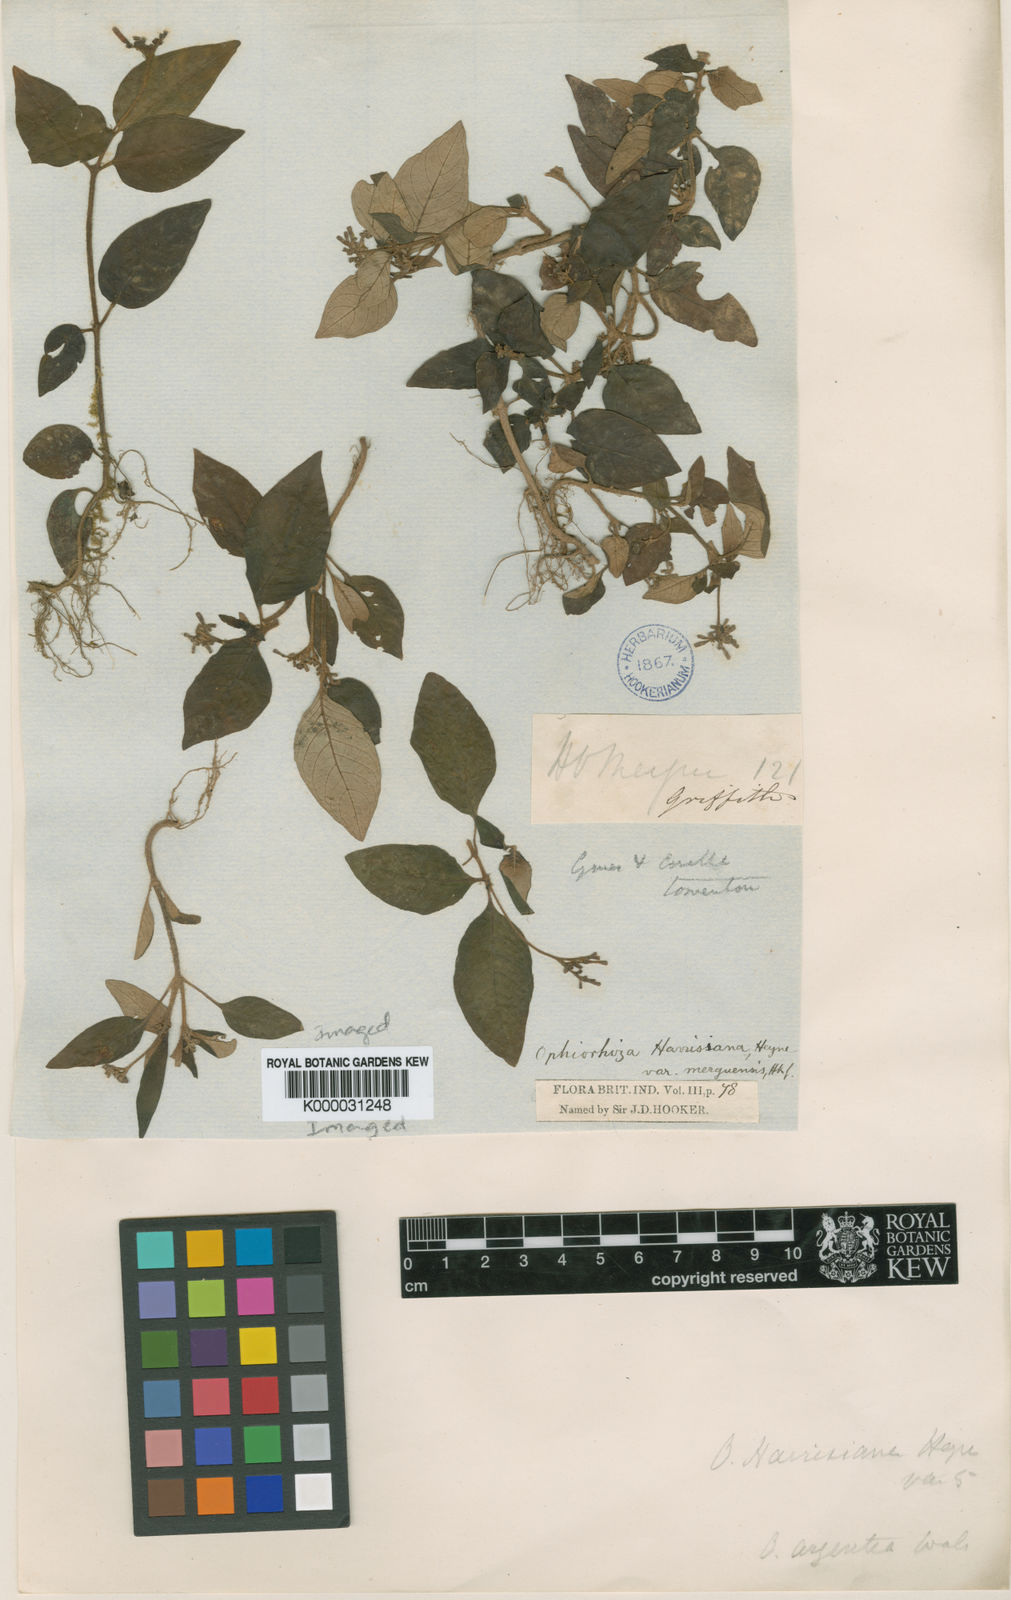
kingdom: Plantae
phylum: Tracheophyta
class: Magnoliopsida
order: Gentianales
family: Rubiaceae
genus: Ophiorrhiza
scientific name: Ophiorrhiza rugosa
